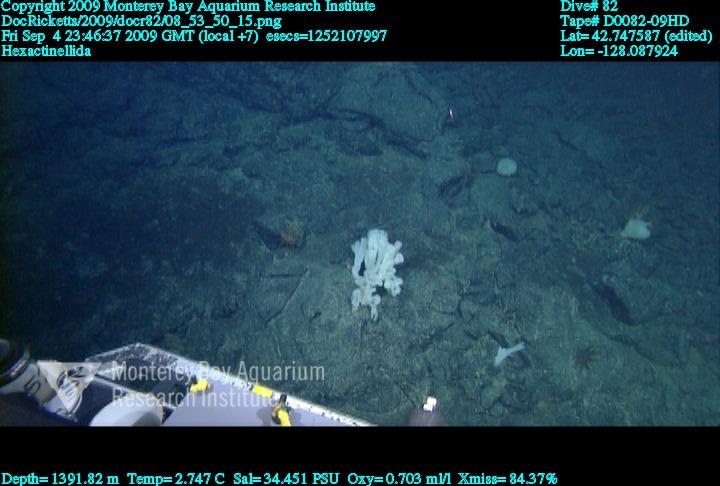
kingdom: Animalia
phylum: Porifera
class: Hexactinellida
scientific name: Hexactinellida
